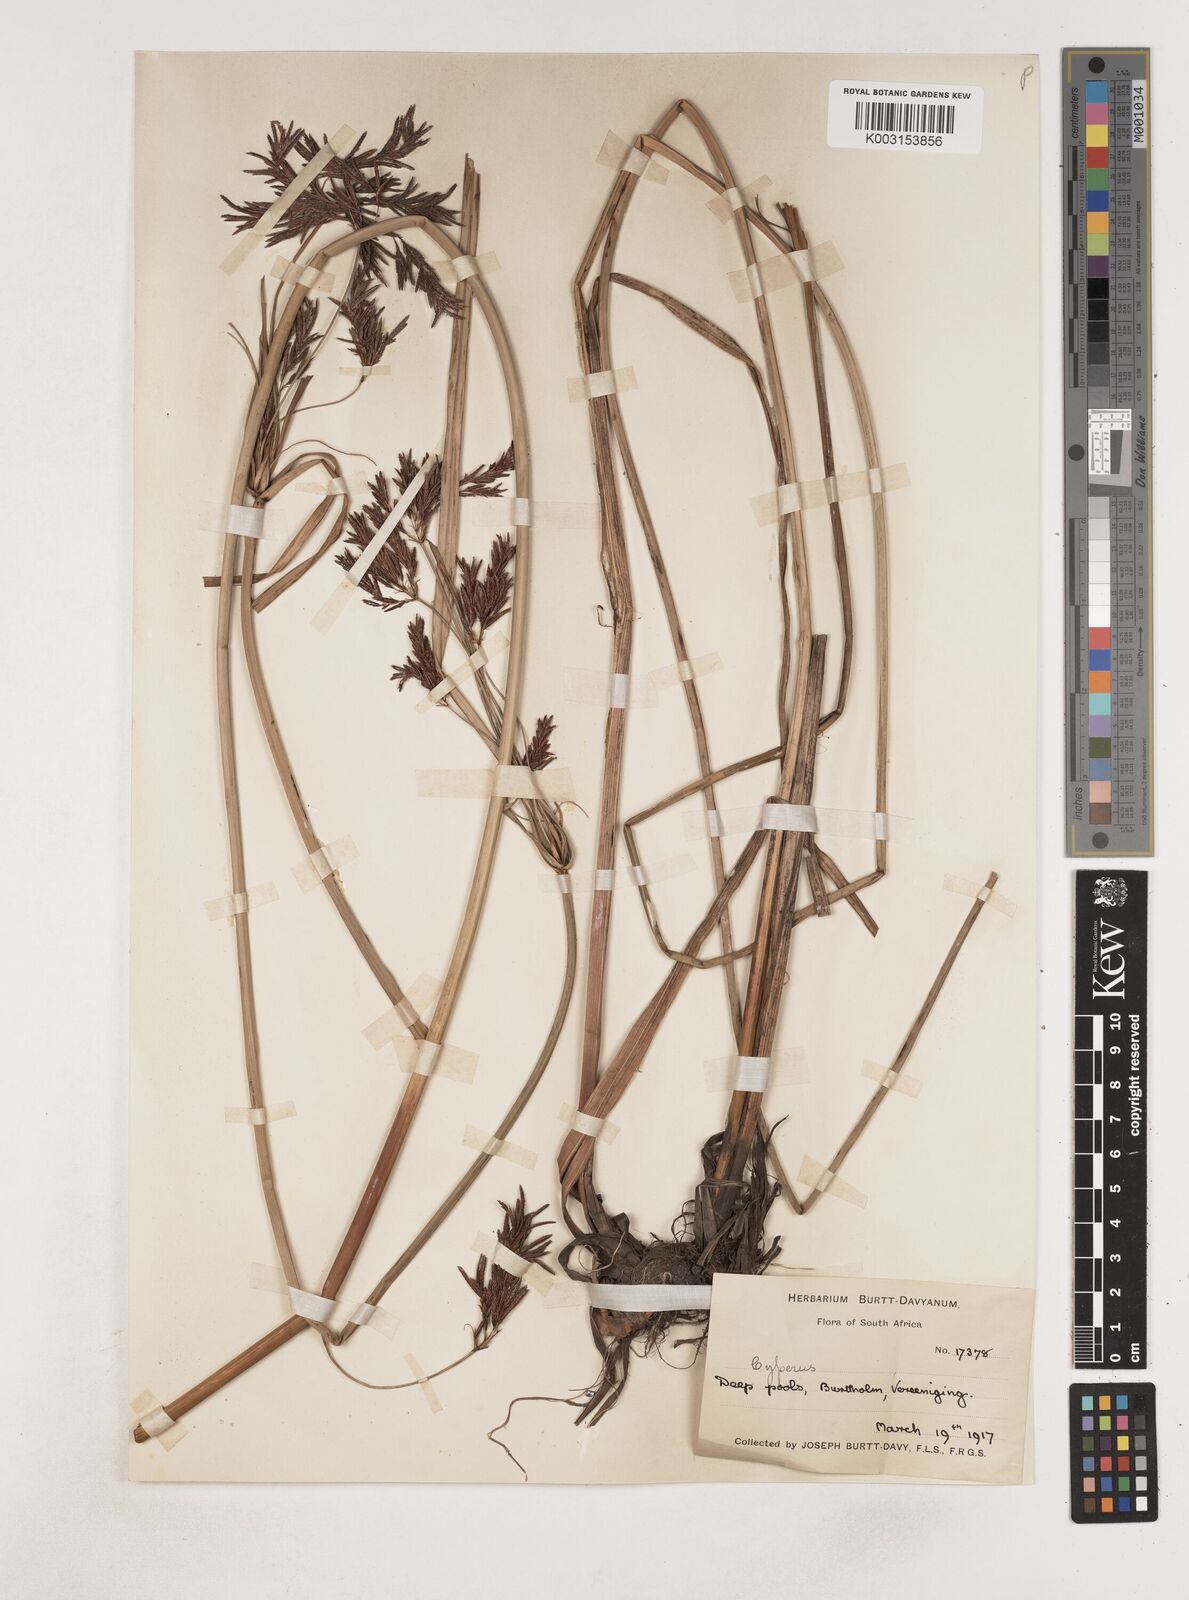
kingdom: Plantae
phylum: Tracheophyta
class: Liliopsida
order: Poales
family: Cyperaceae
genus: Cyperus
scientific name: Cyperus
